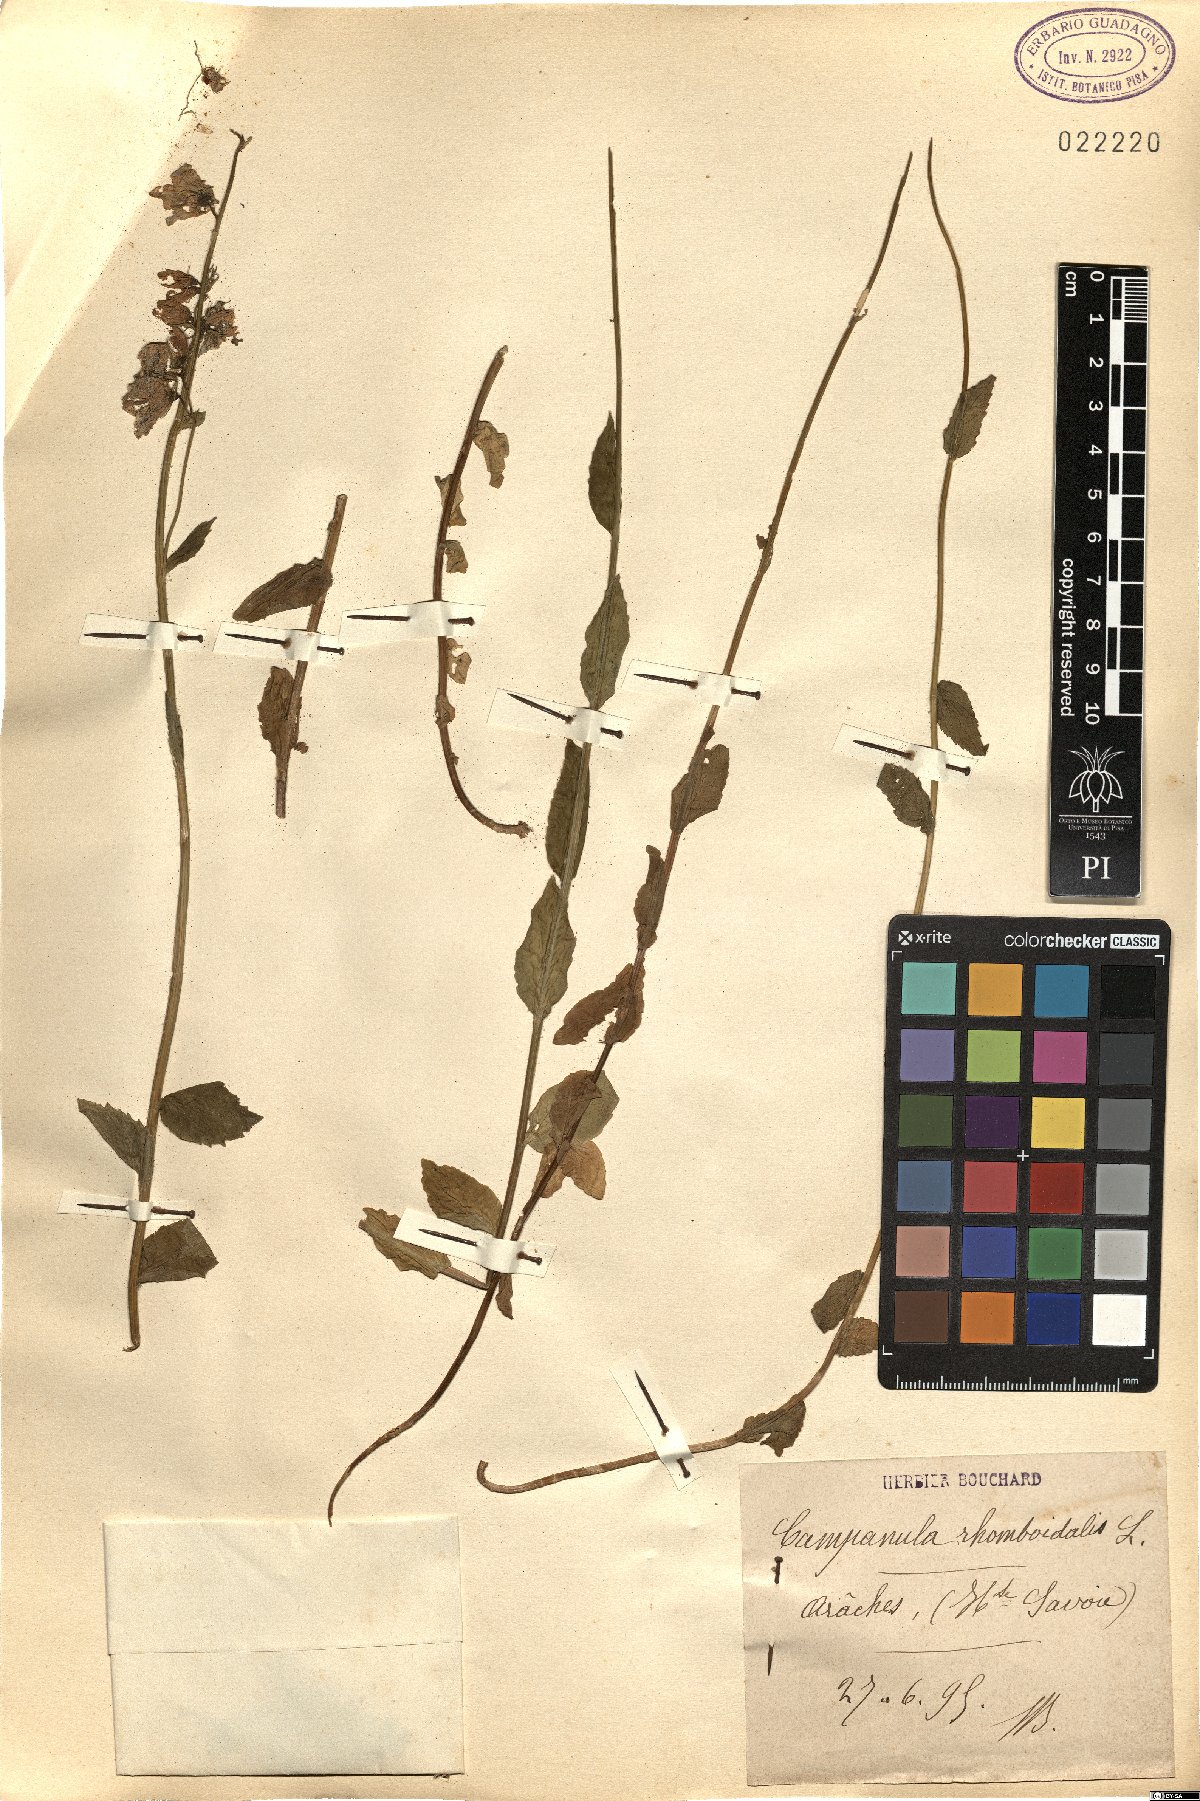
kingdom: Plantae
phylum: Tracheophyta
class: Magnoliopsida
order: Asterales
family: Campanulaceae
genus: Campanula
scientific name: Campanula rhomboidalis
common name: Broad-leaved harebell
